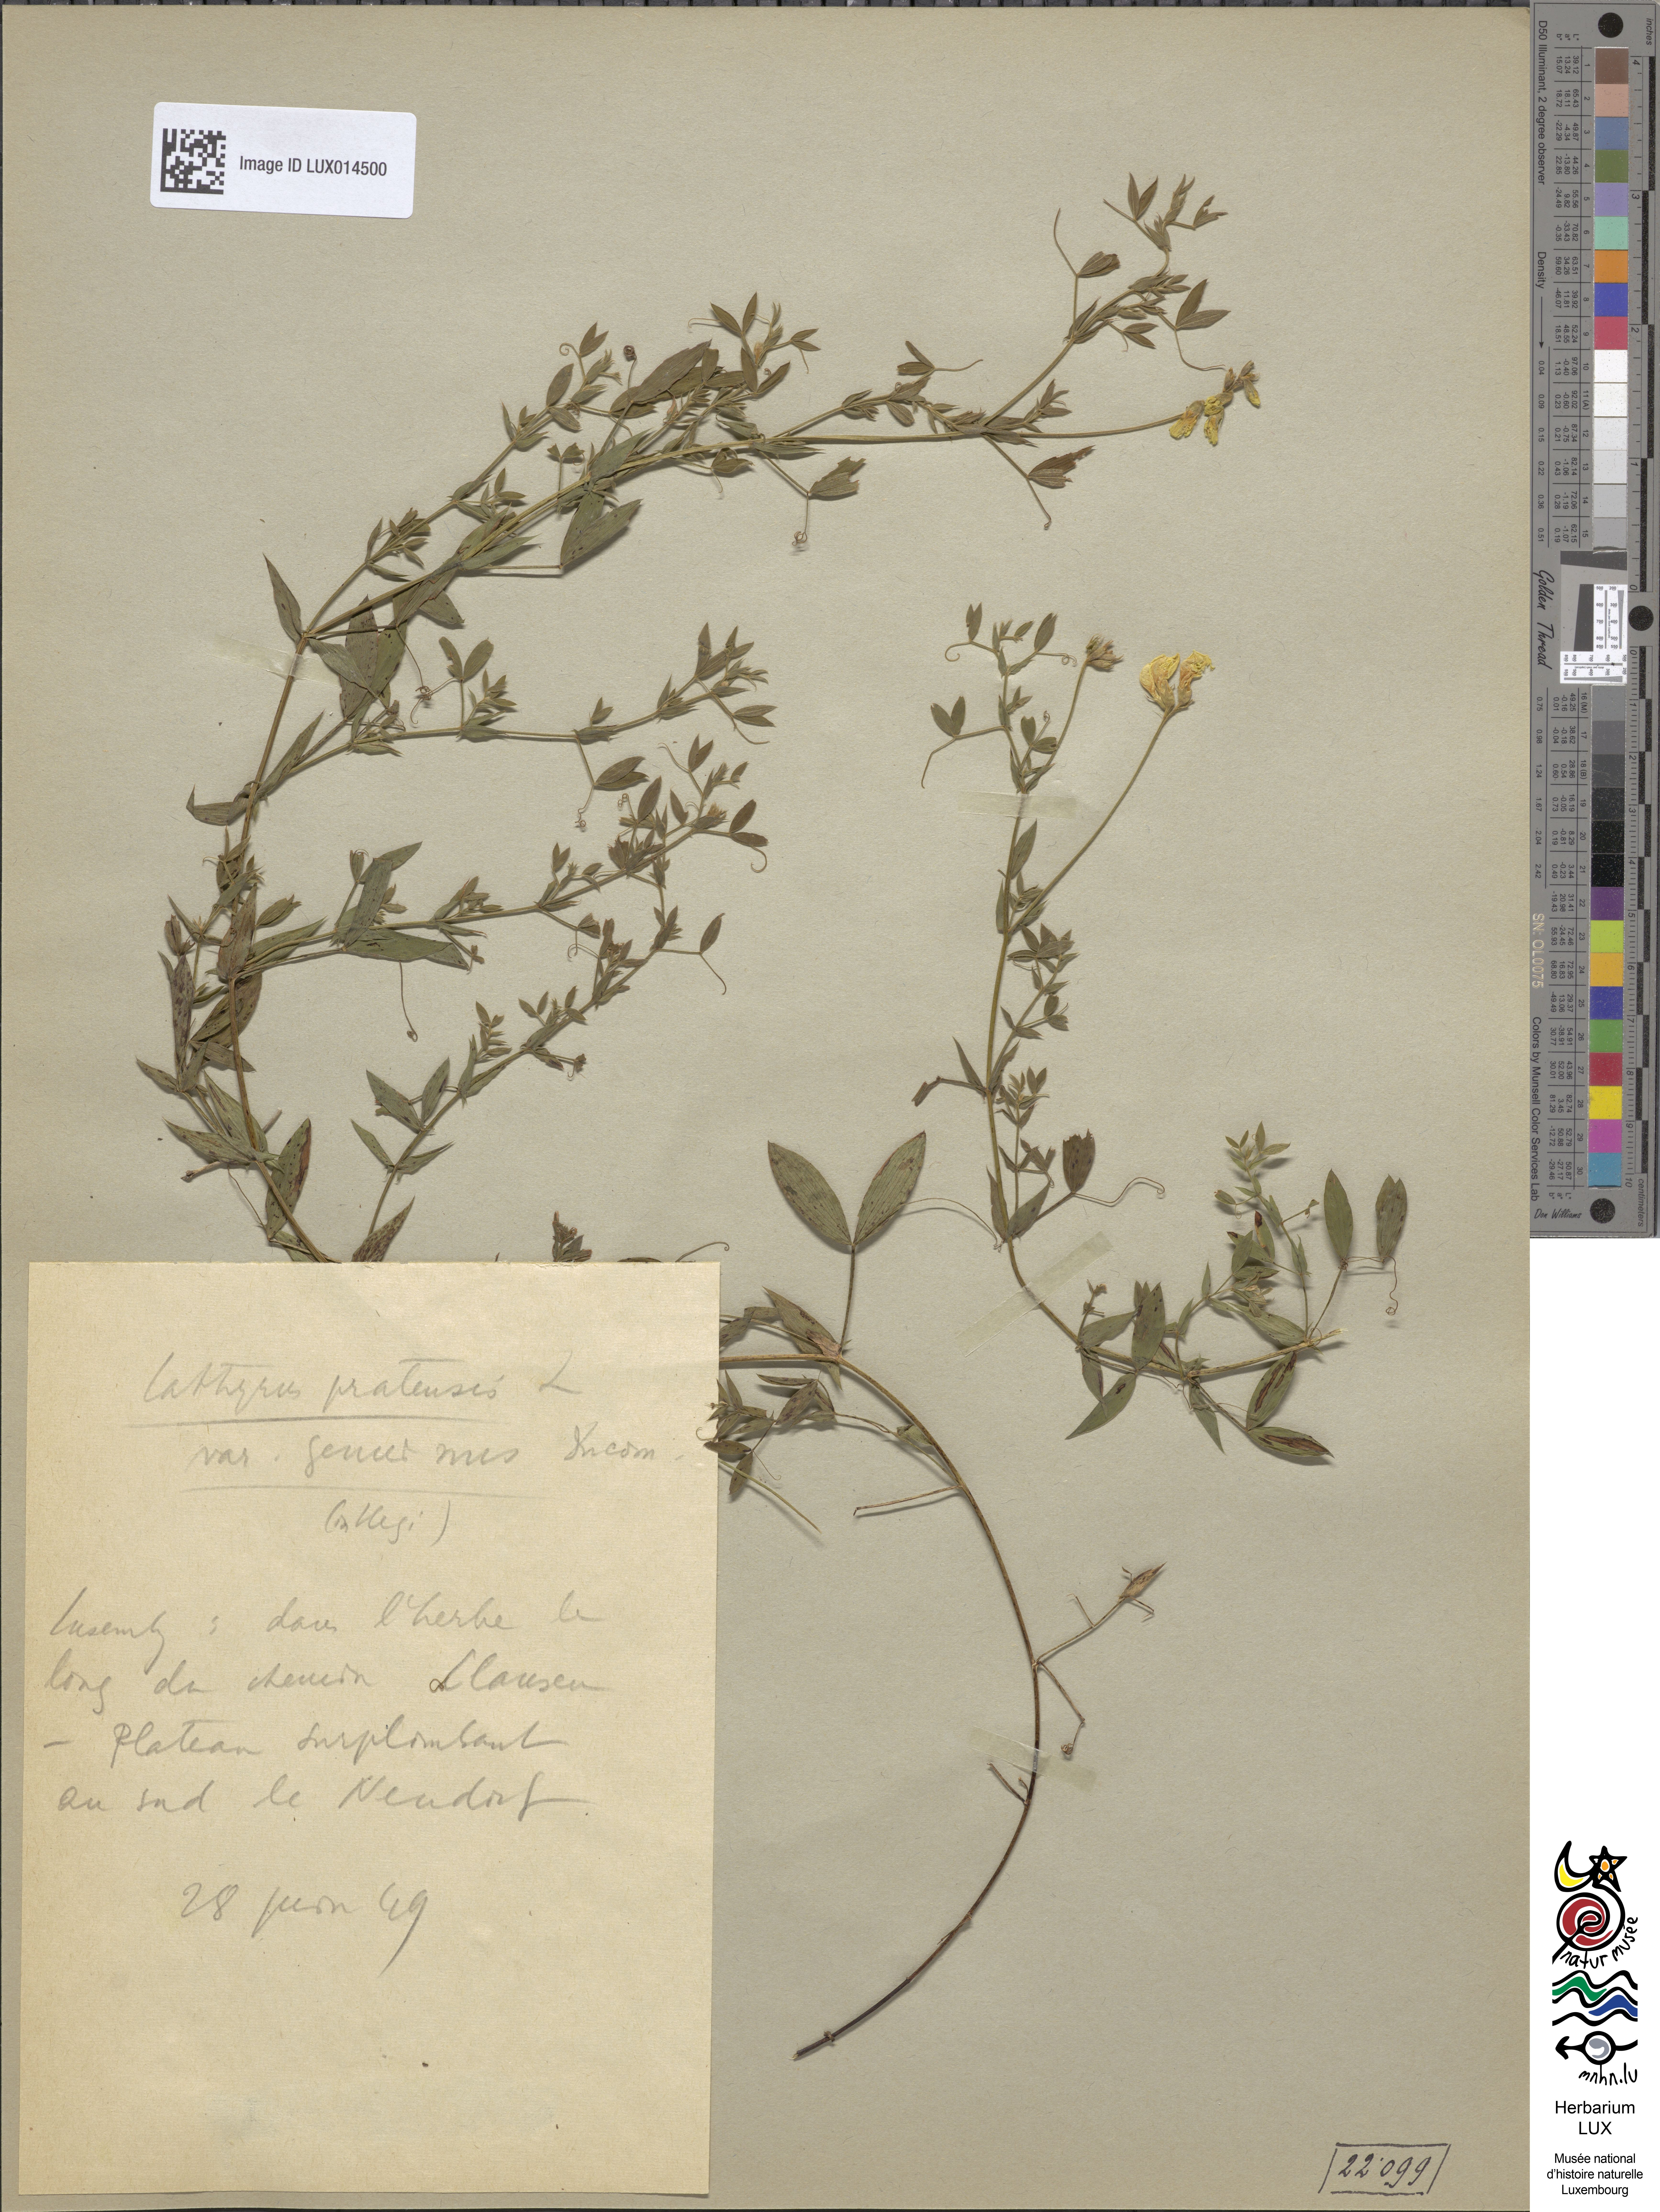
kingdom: Plantae
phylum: Tracheophyta
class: Magnoliopsida
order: Fabales
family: Fabaceae
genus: Lathyrus
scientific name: Lathyrus pratensis
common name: Meadow vetchling
